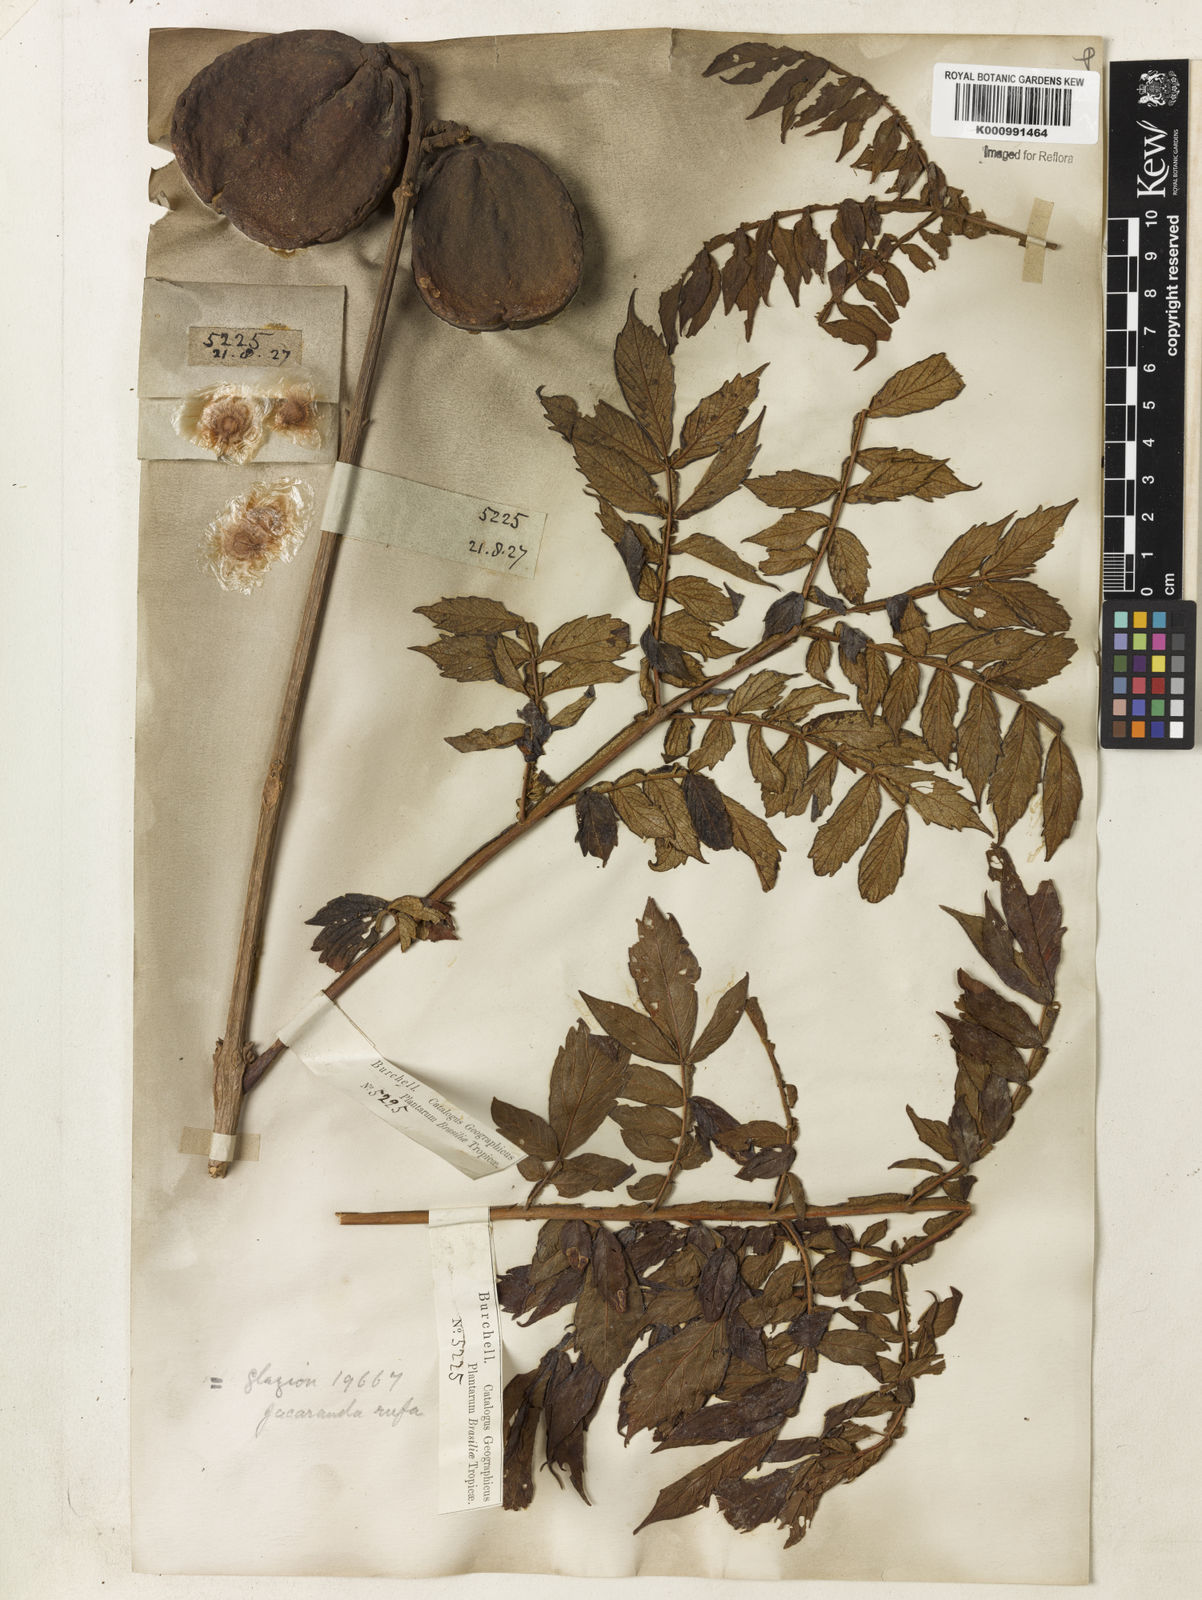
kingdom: Plantae
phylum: Tracheophyta
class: Magnoliopsida
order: Lamiales
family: Bignoniaceae
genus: Jacaranda
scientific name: Jacaranda rufa
